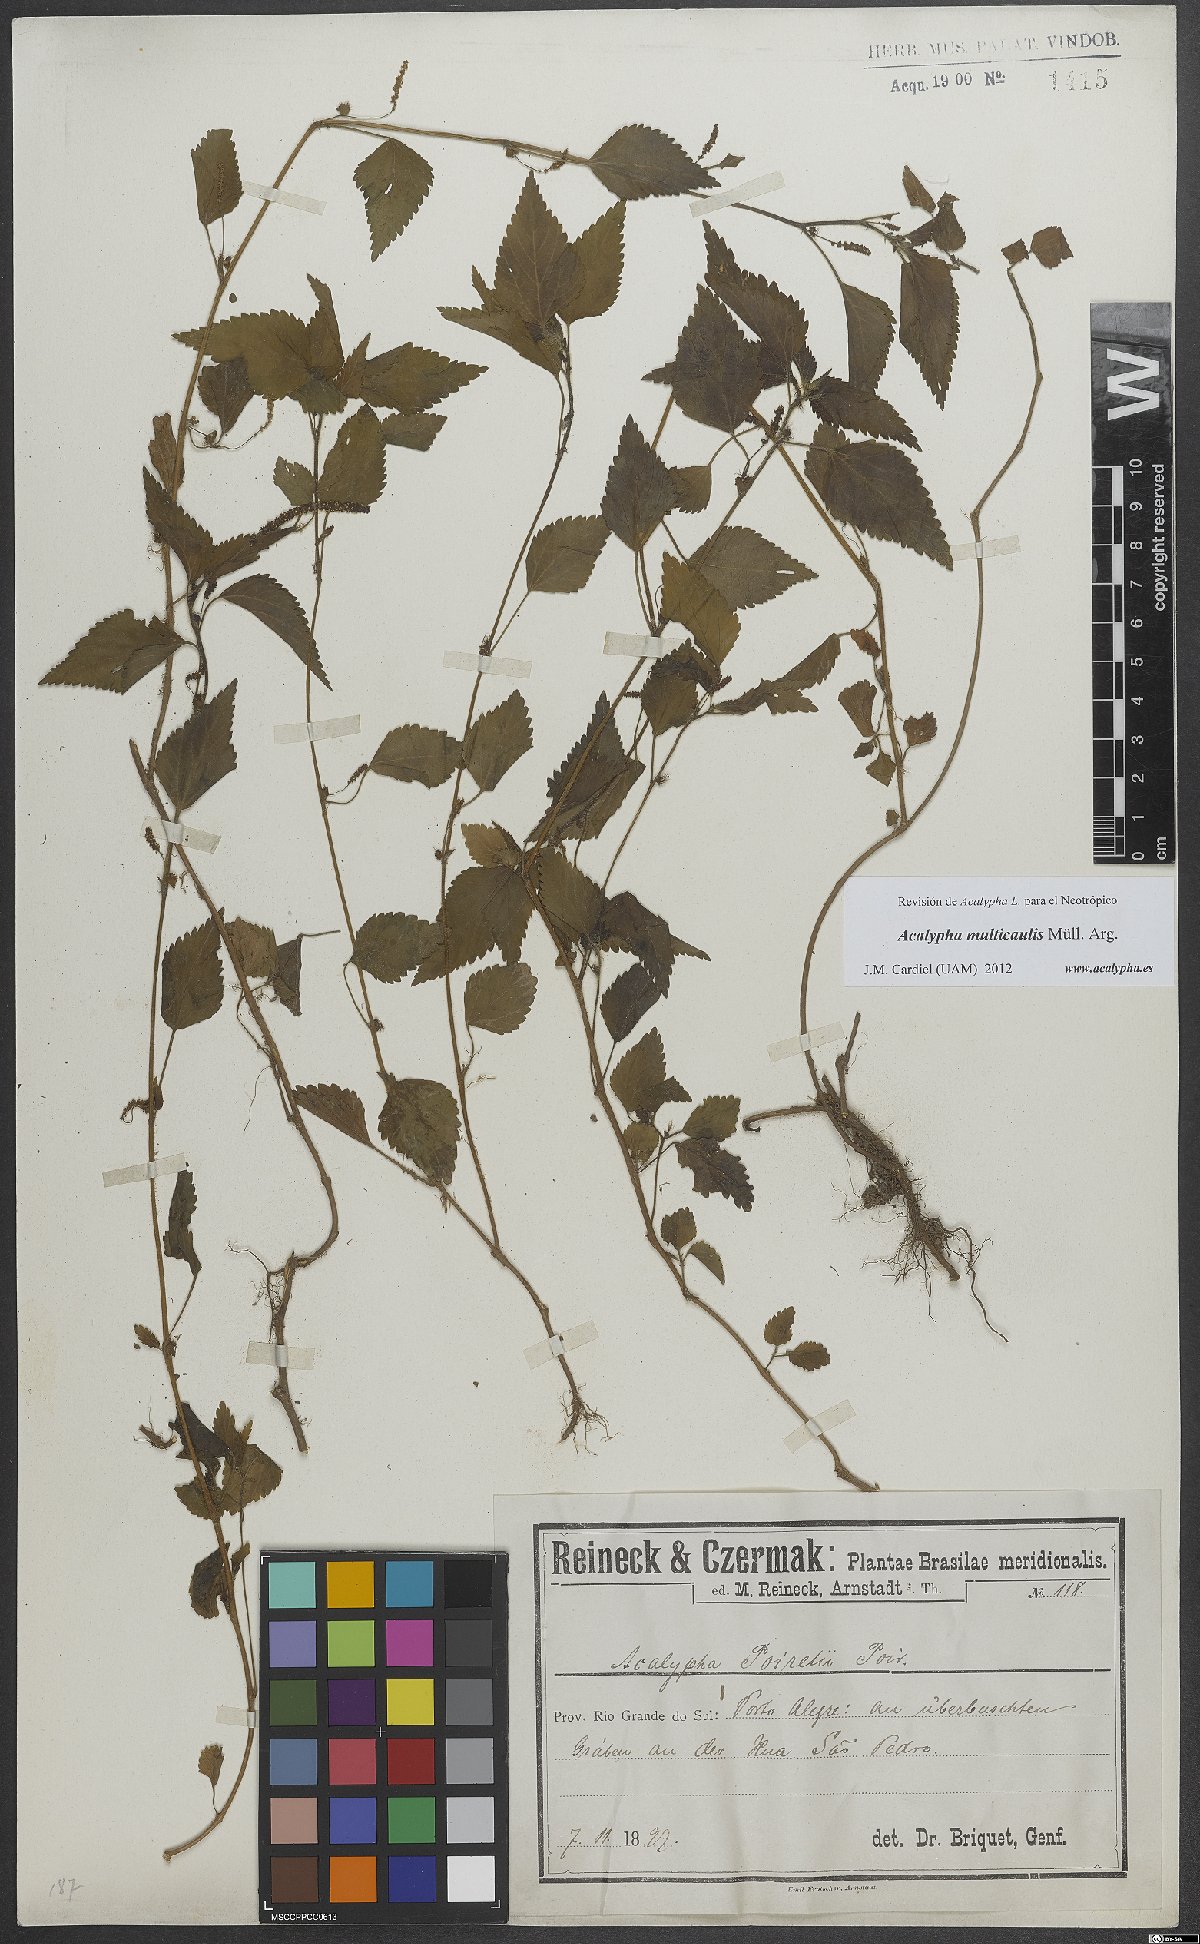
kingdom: Plantae
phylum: Tracheophyta
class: Magnoliopsida
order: Malpighiales
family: Euphorbiaceae
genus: Acalypha
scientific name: Acalypha multicaulis
